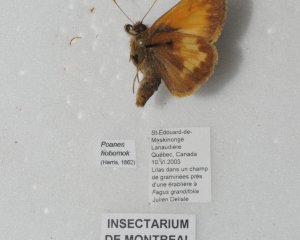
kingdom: Animalia
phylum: Arthropoda
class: Insecta
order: Lepidoptera
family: Hesperiidae
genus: Lon
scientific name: Lon hobomok
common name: Hobomok Skipper
